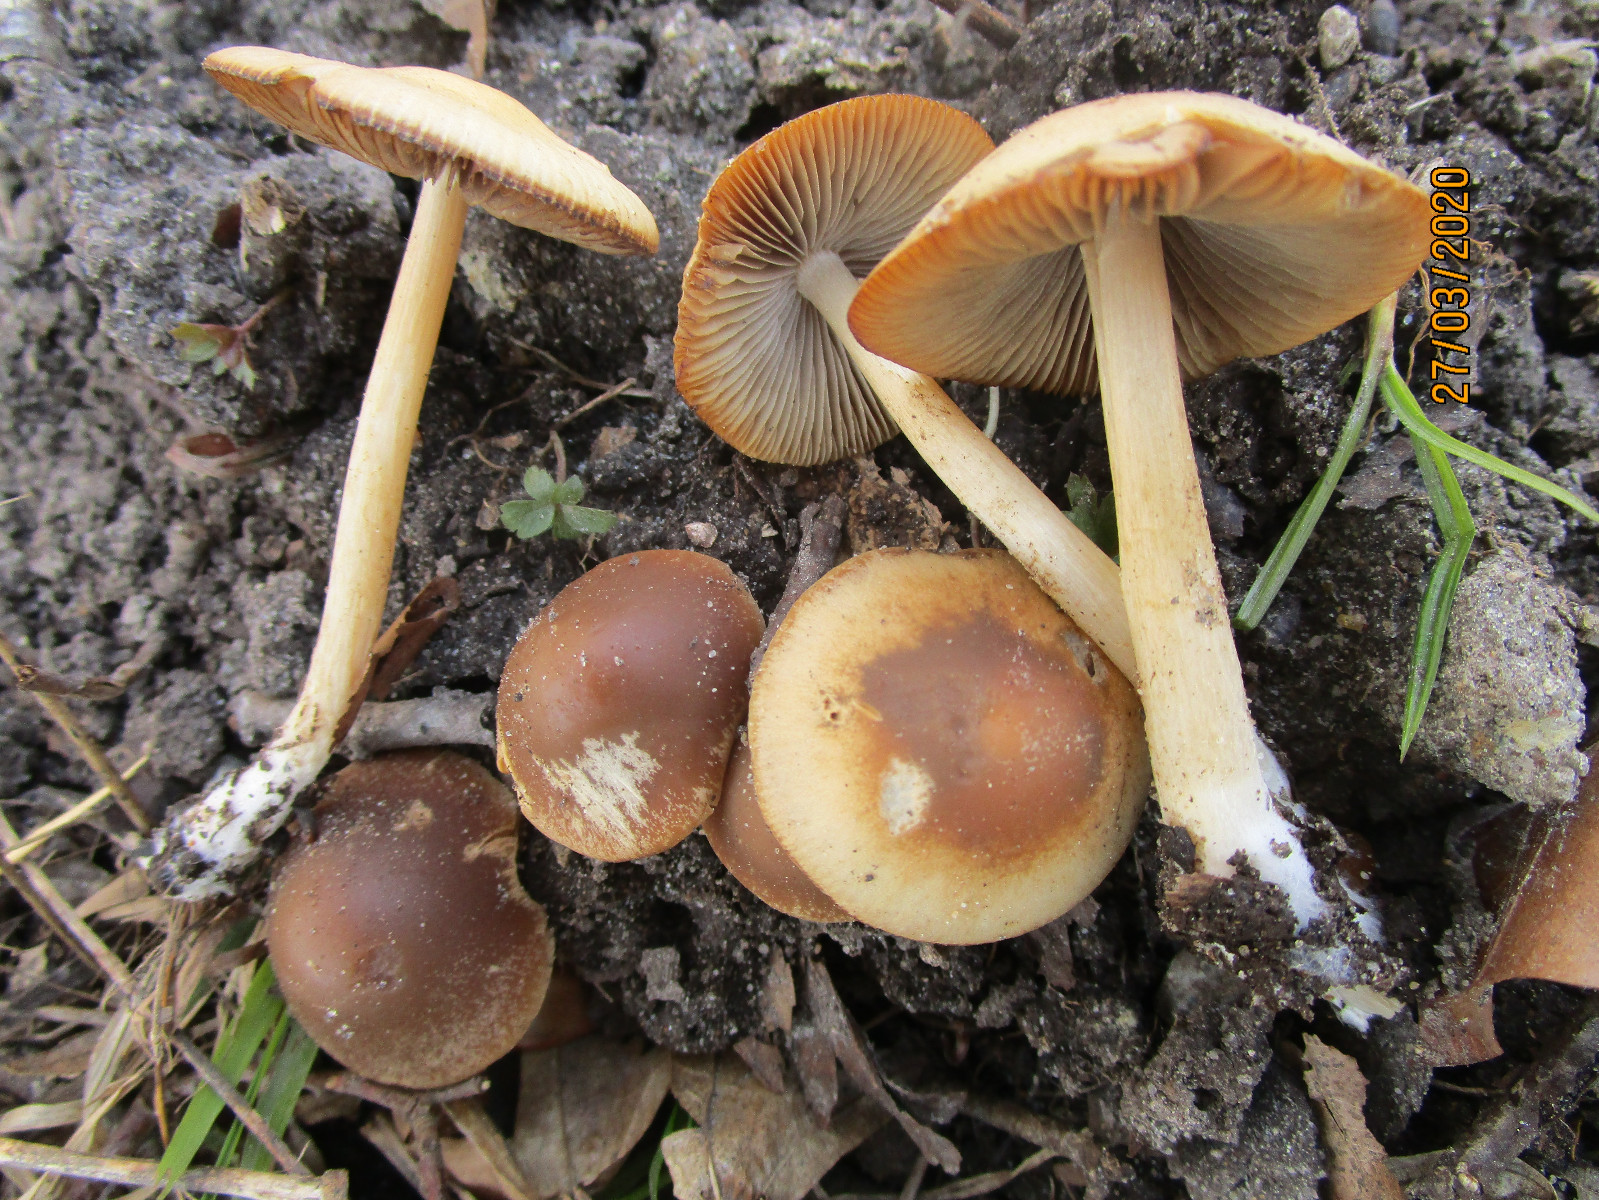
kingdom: Fungi
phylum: Basidiomycota
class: Agaricomycetes
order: Agaricales
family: Psathyrellaceae
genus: Psathyrella
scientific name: Psathyrella
